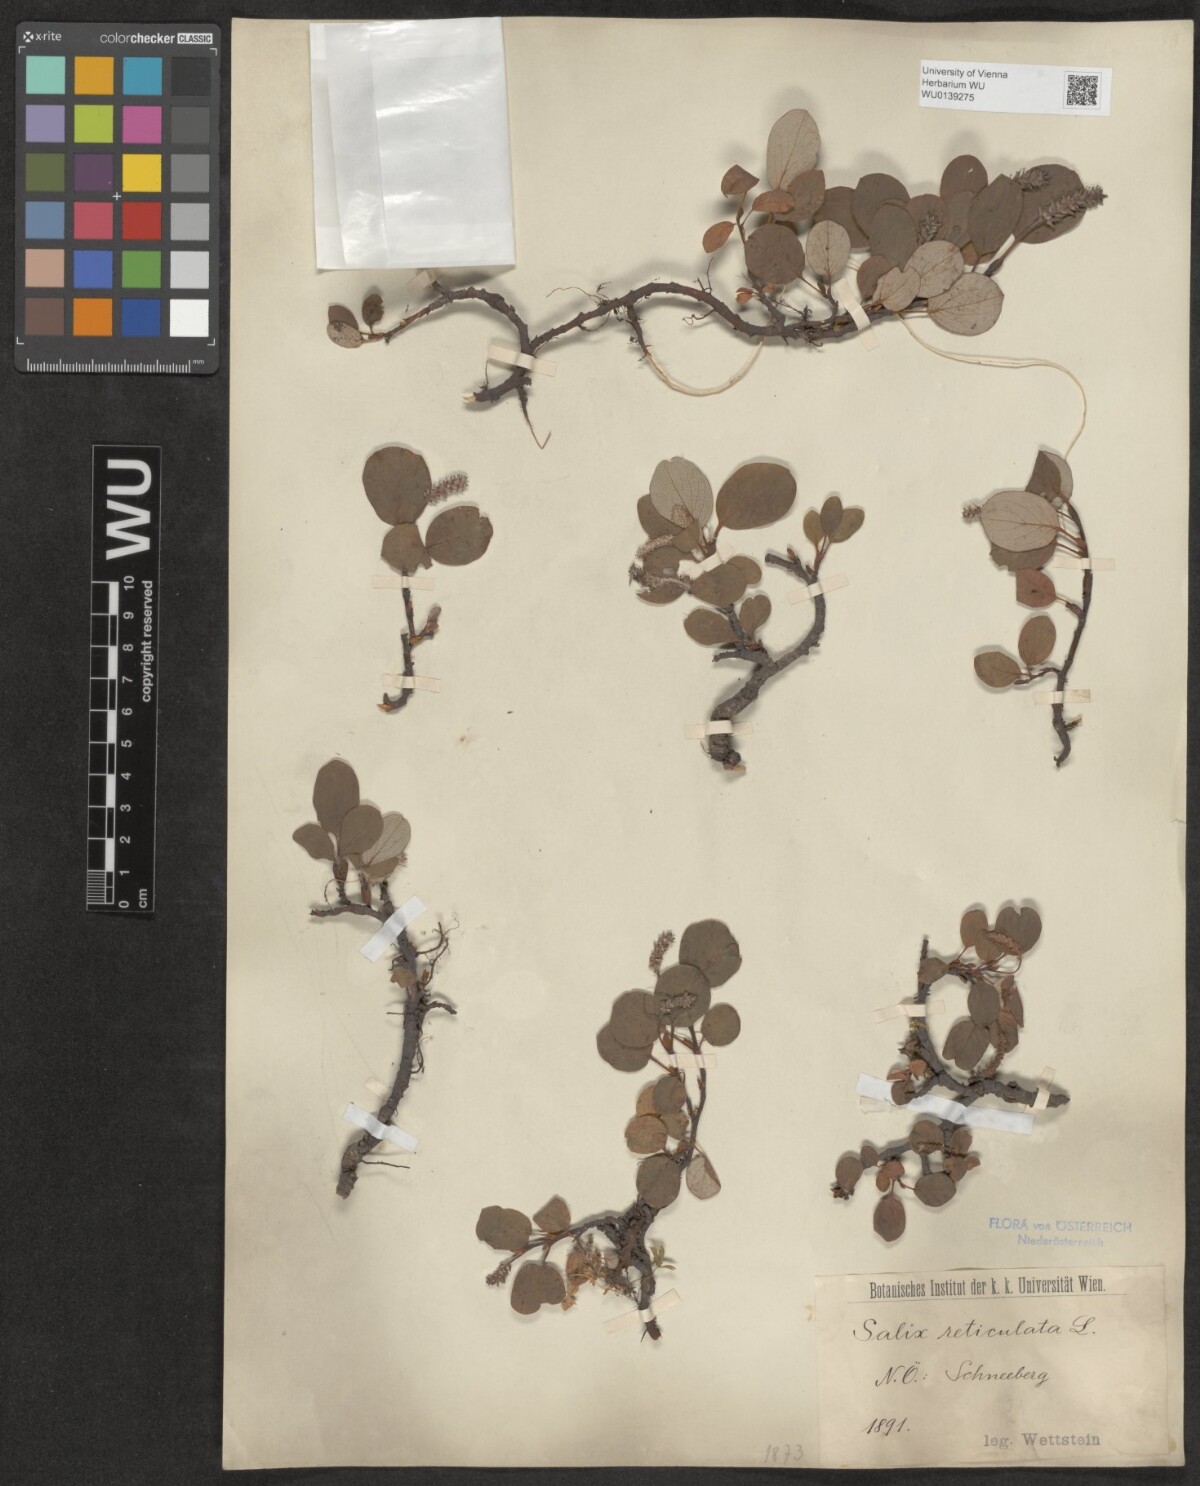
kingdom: Plantae
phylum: Tracheophyta
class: Magnoliopsida
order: Malpighiales
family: Salicaceae
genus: Salix
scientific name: Salix reticulata
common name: Net-leaved willow
